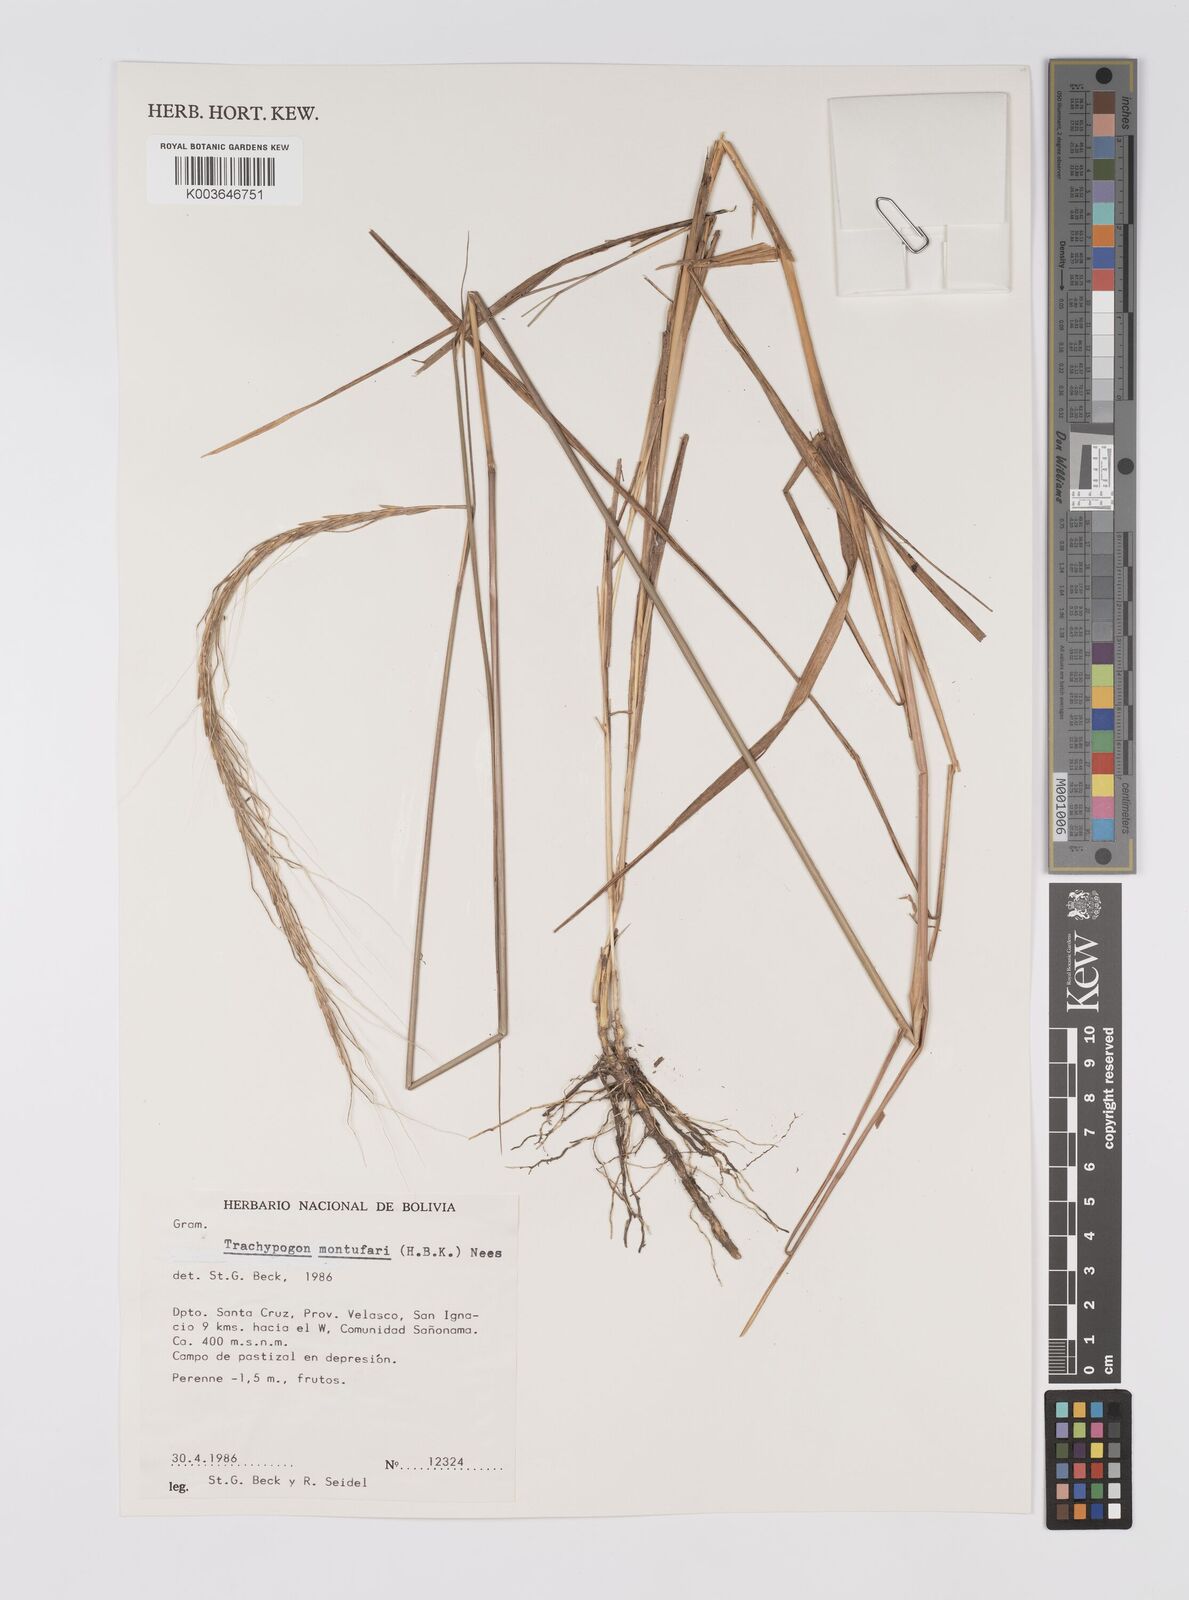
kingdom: Plantae
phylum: Tracheophyta
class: Liliopsida
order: Poales
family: Poaceae
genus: Trachypogon
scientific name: Trachypogon spicatus
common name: Crinkle-awn
